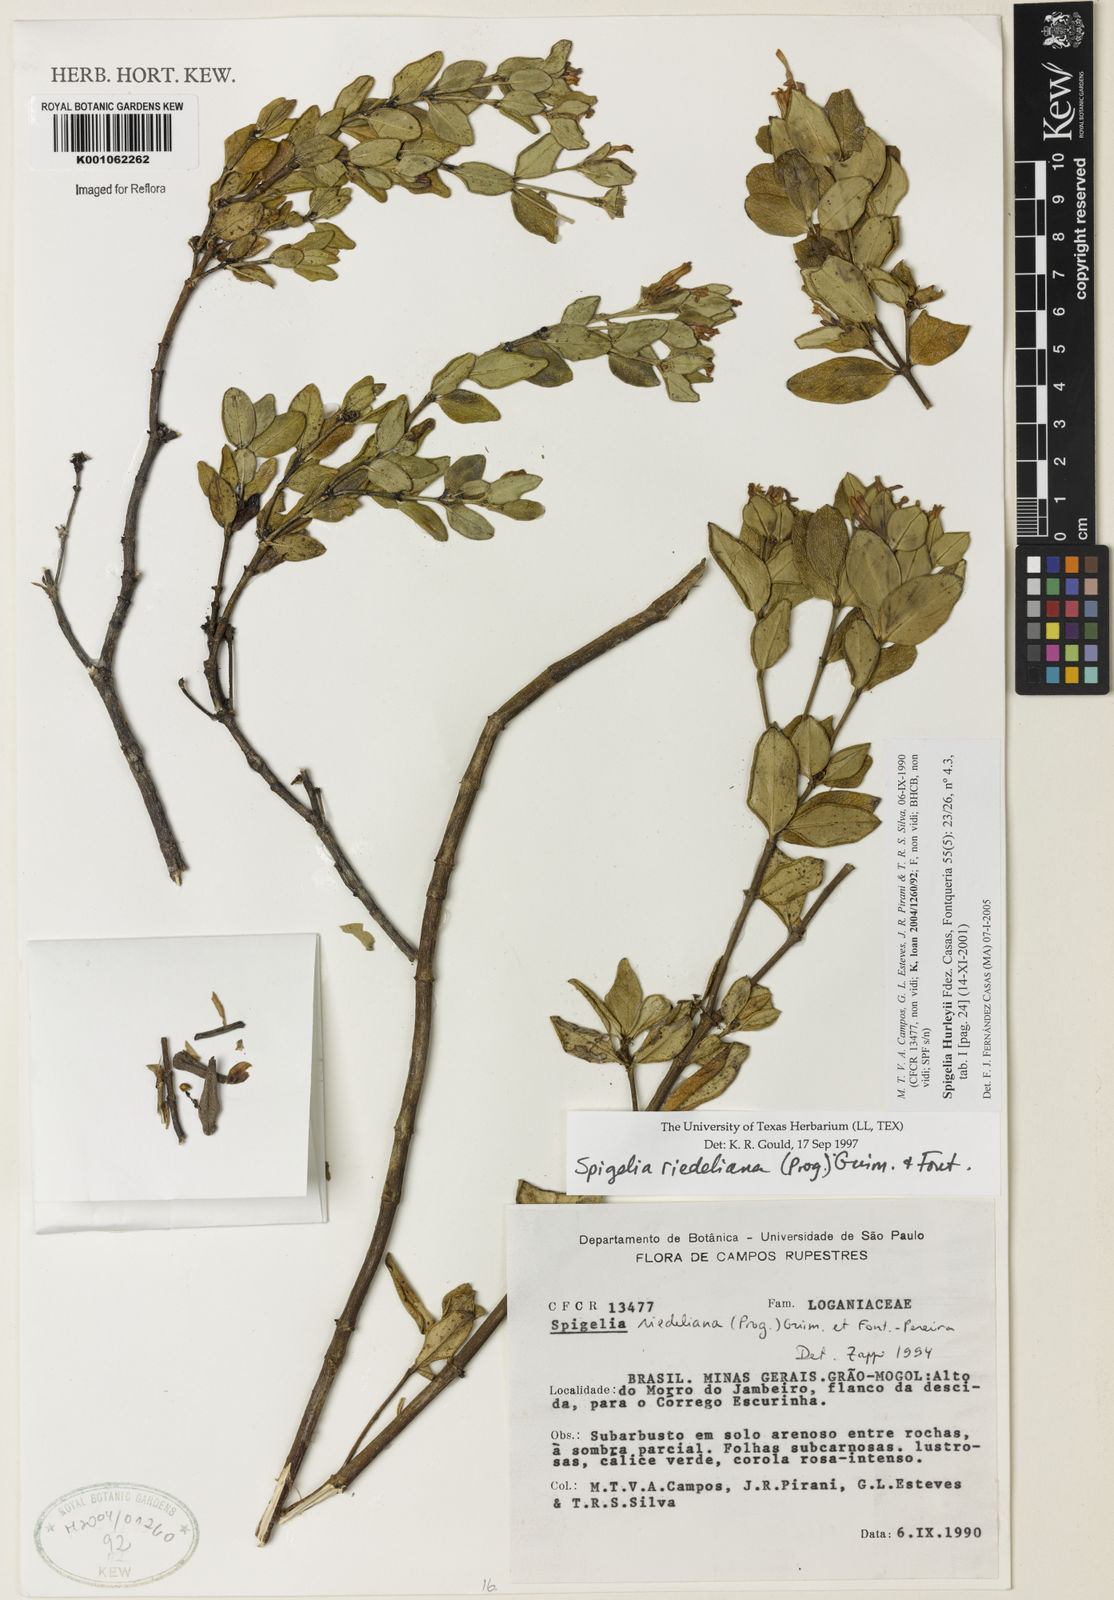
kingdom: Plantae
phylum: Tracheophyta
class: Magnoliopsida
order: Gentianales
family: Loganiaceae
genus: Spigelia
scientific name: Spigelia
